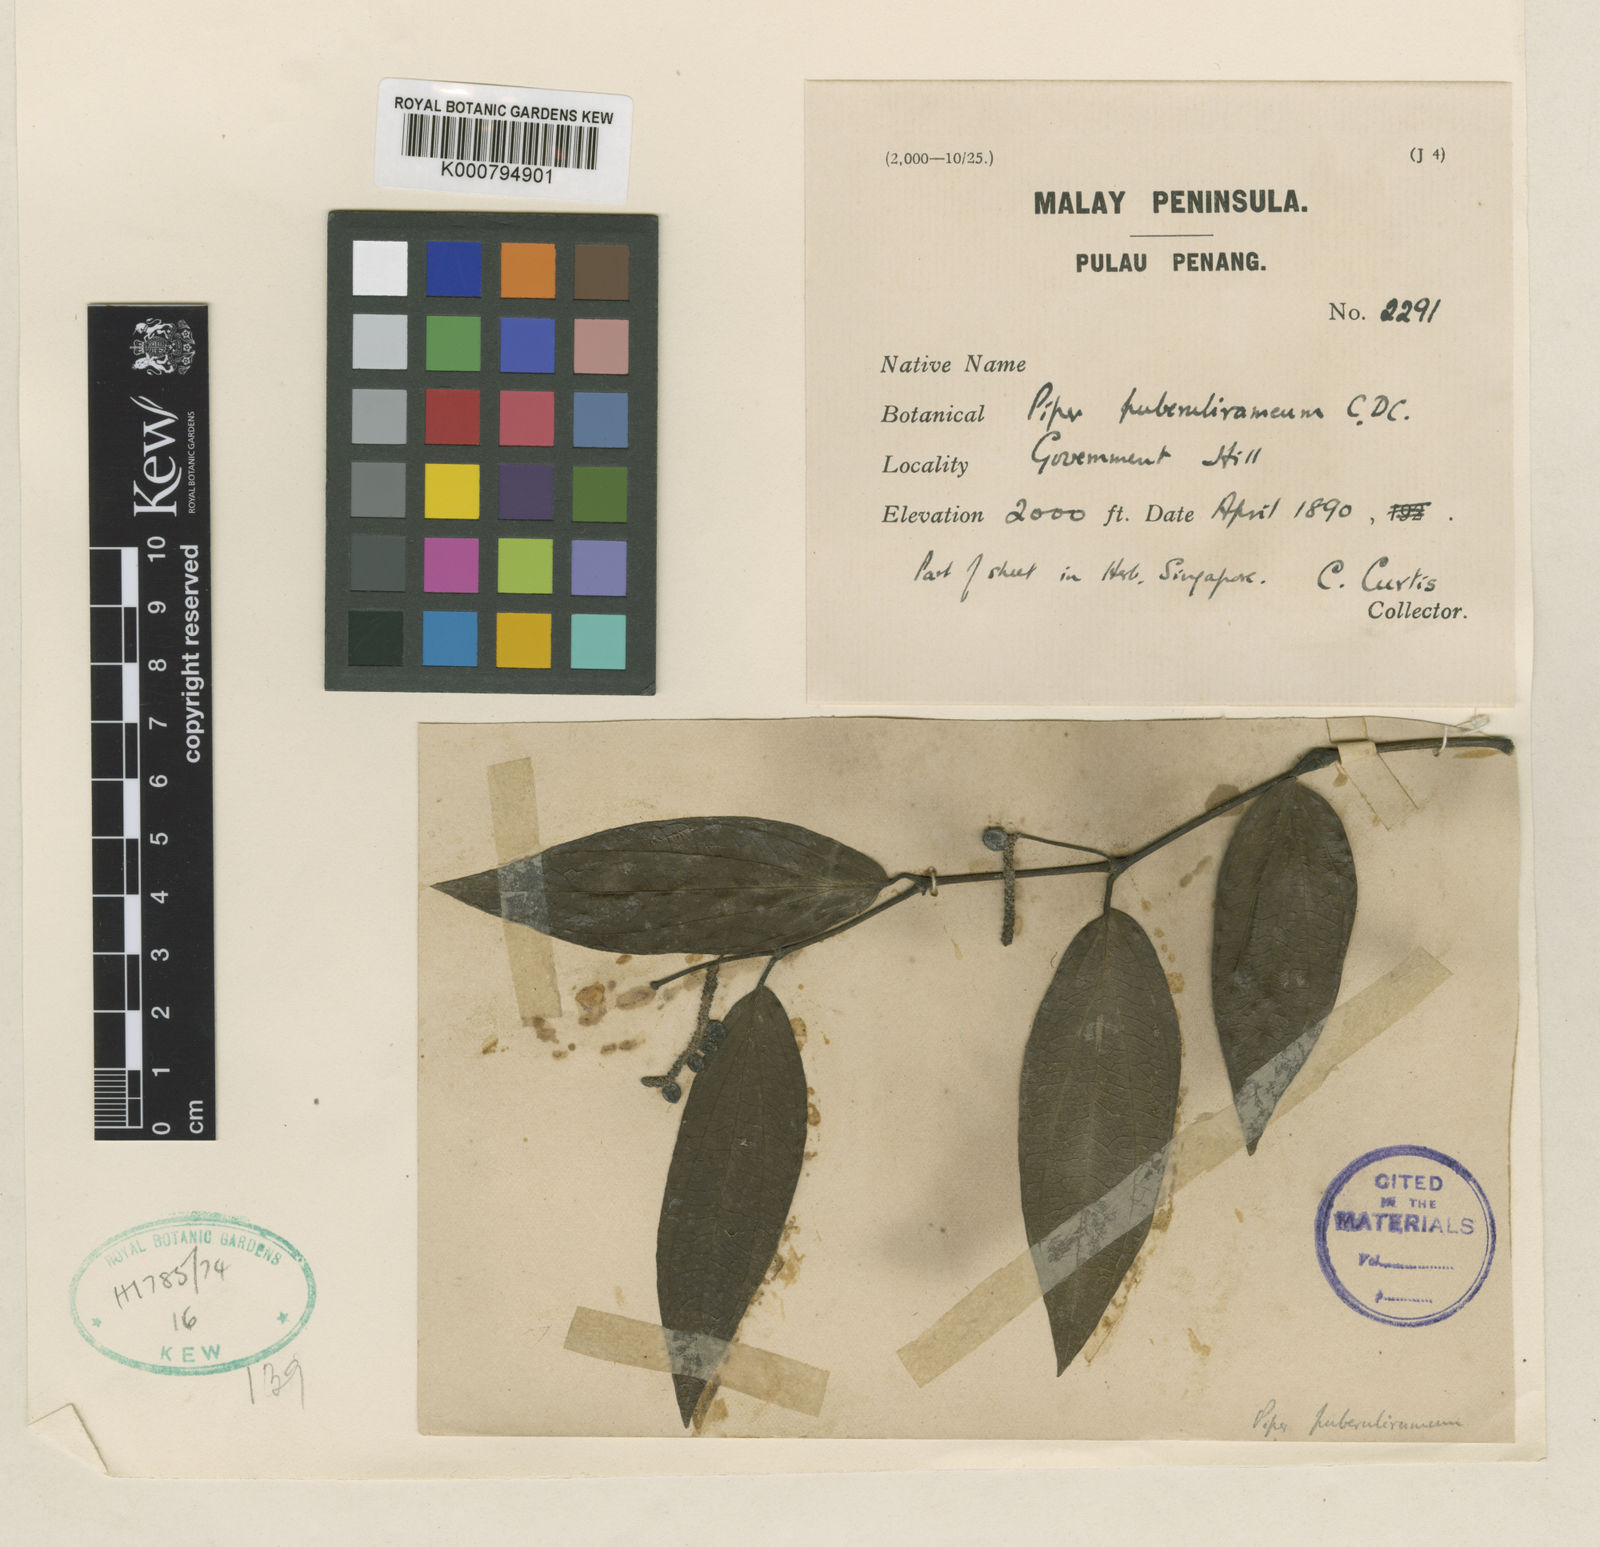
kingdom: Plantae
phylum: Tracheophyta
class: Magnoliopsida
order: Piperales
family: Piperaceae
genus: Piper
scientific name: Piper puberulirameum
